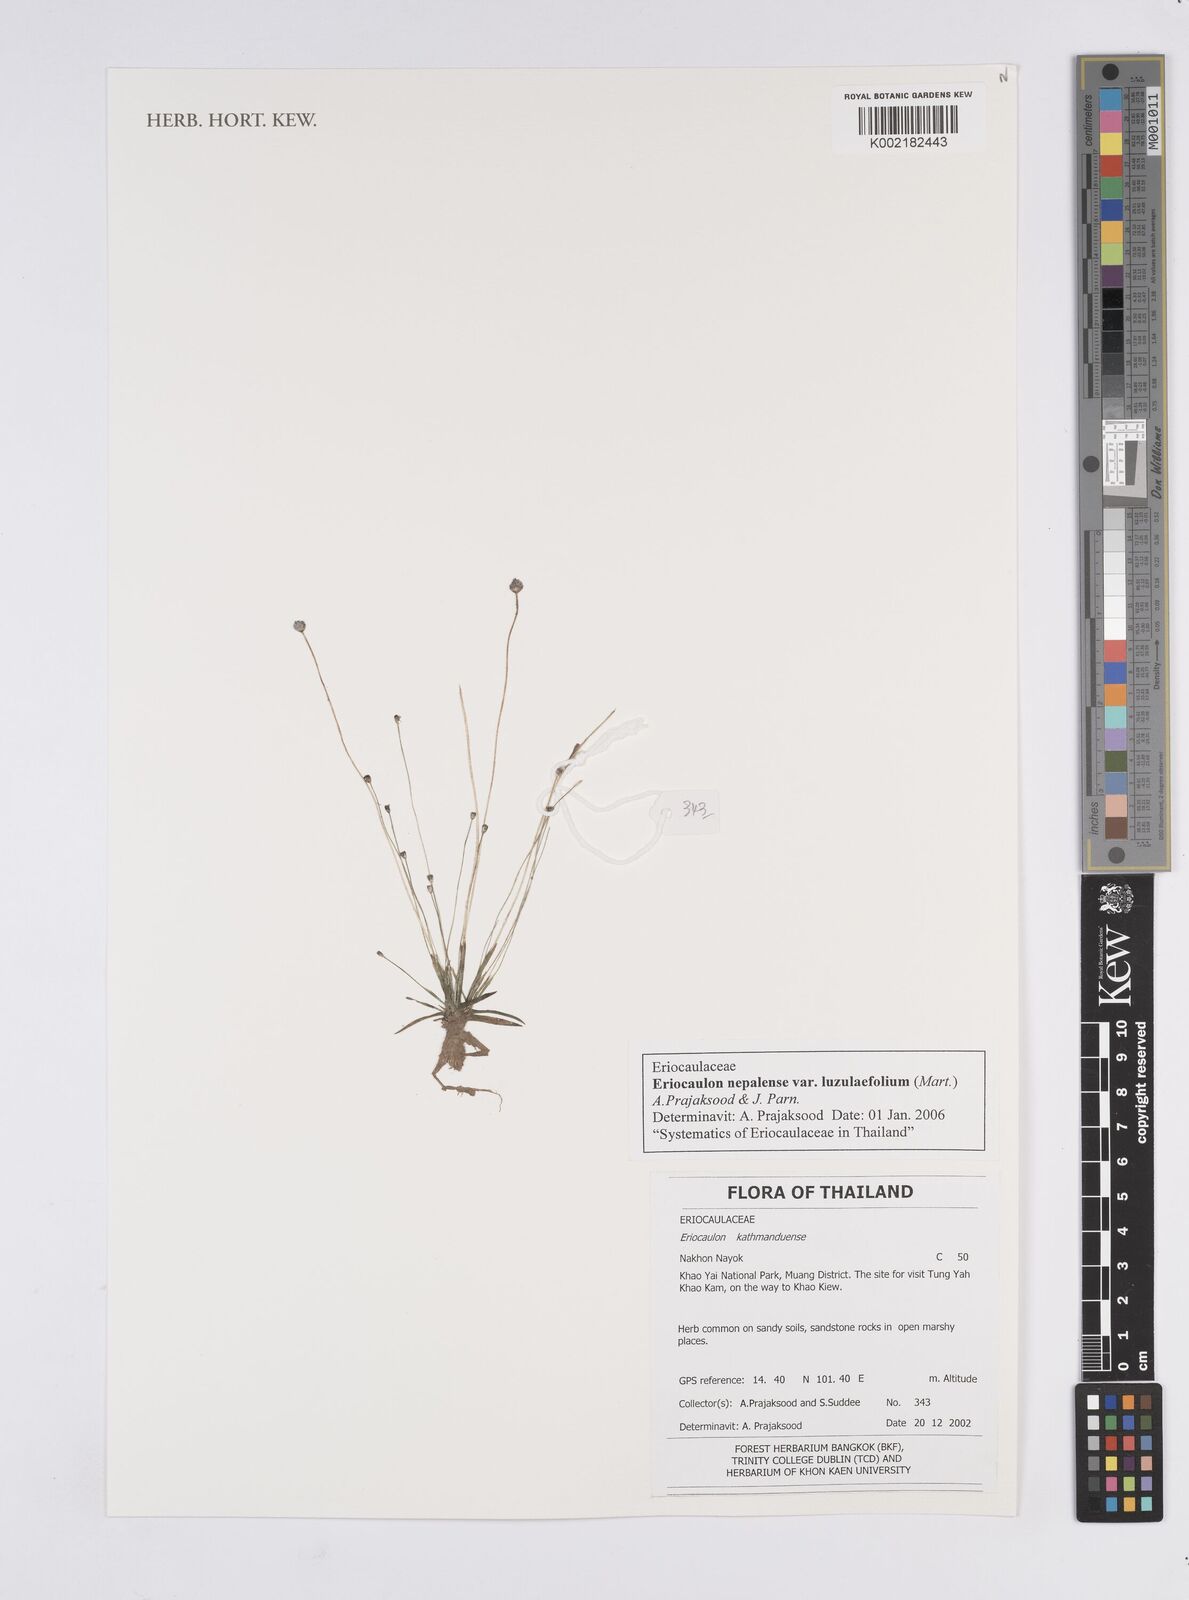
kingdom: Plantae
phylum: Tracheophyta
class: Liliopsida
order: Poales
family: Eriocaulaceae
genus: Eriocaulon
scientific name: Eriocaulon nepalense
